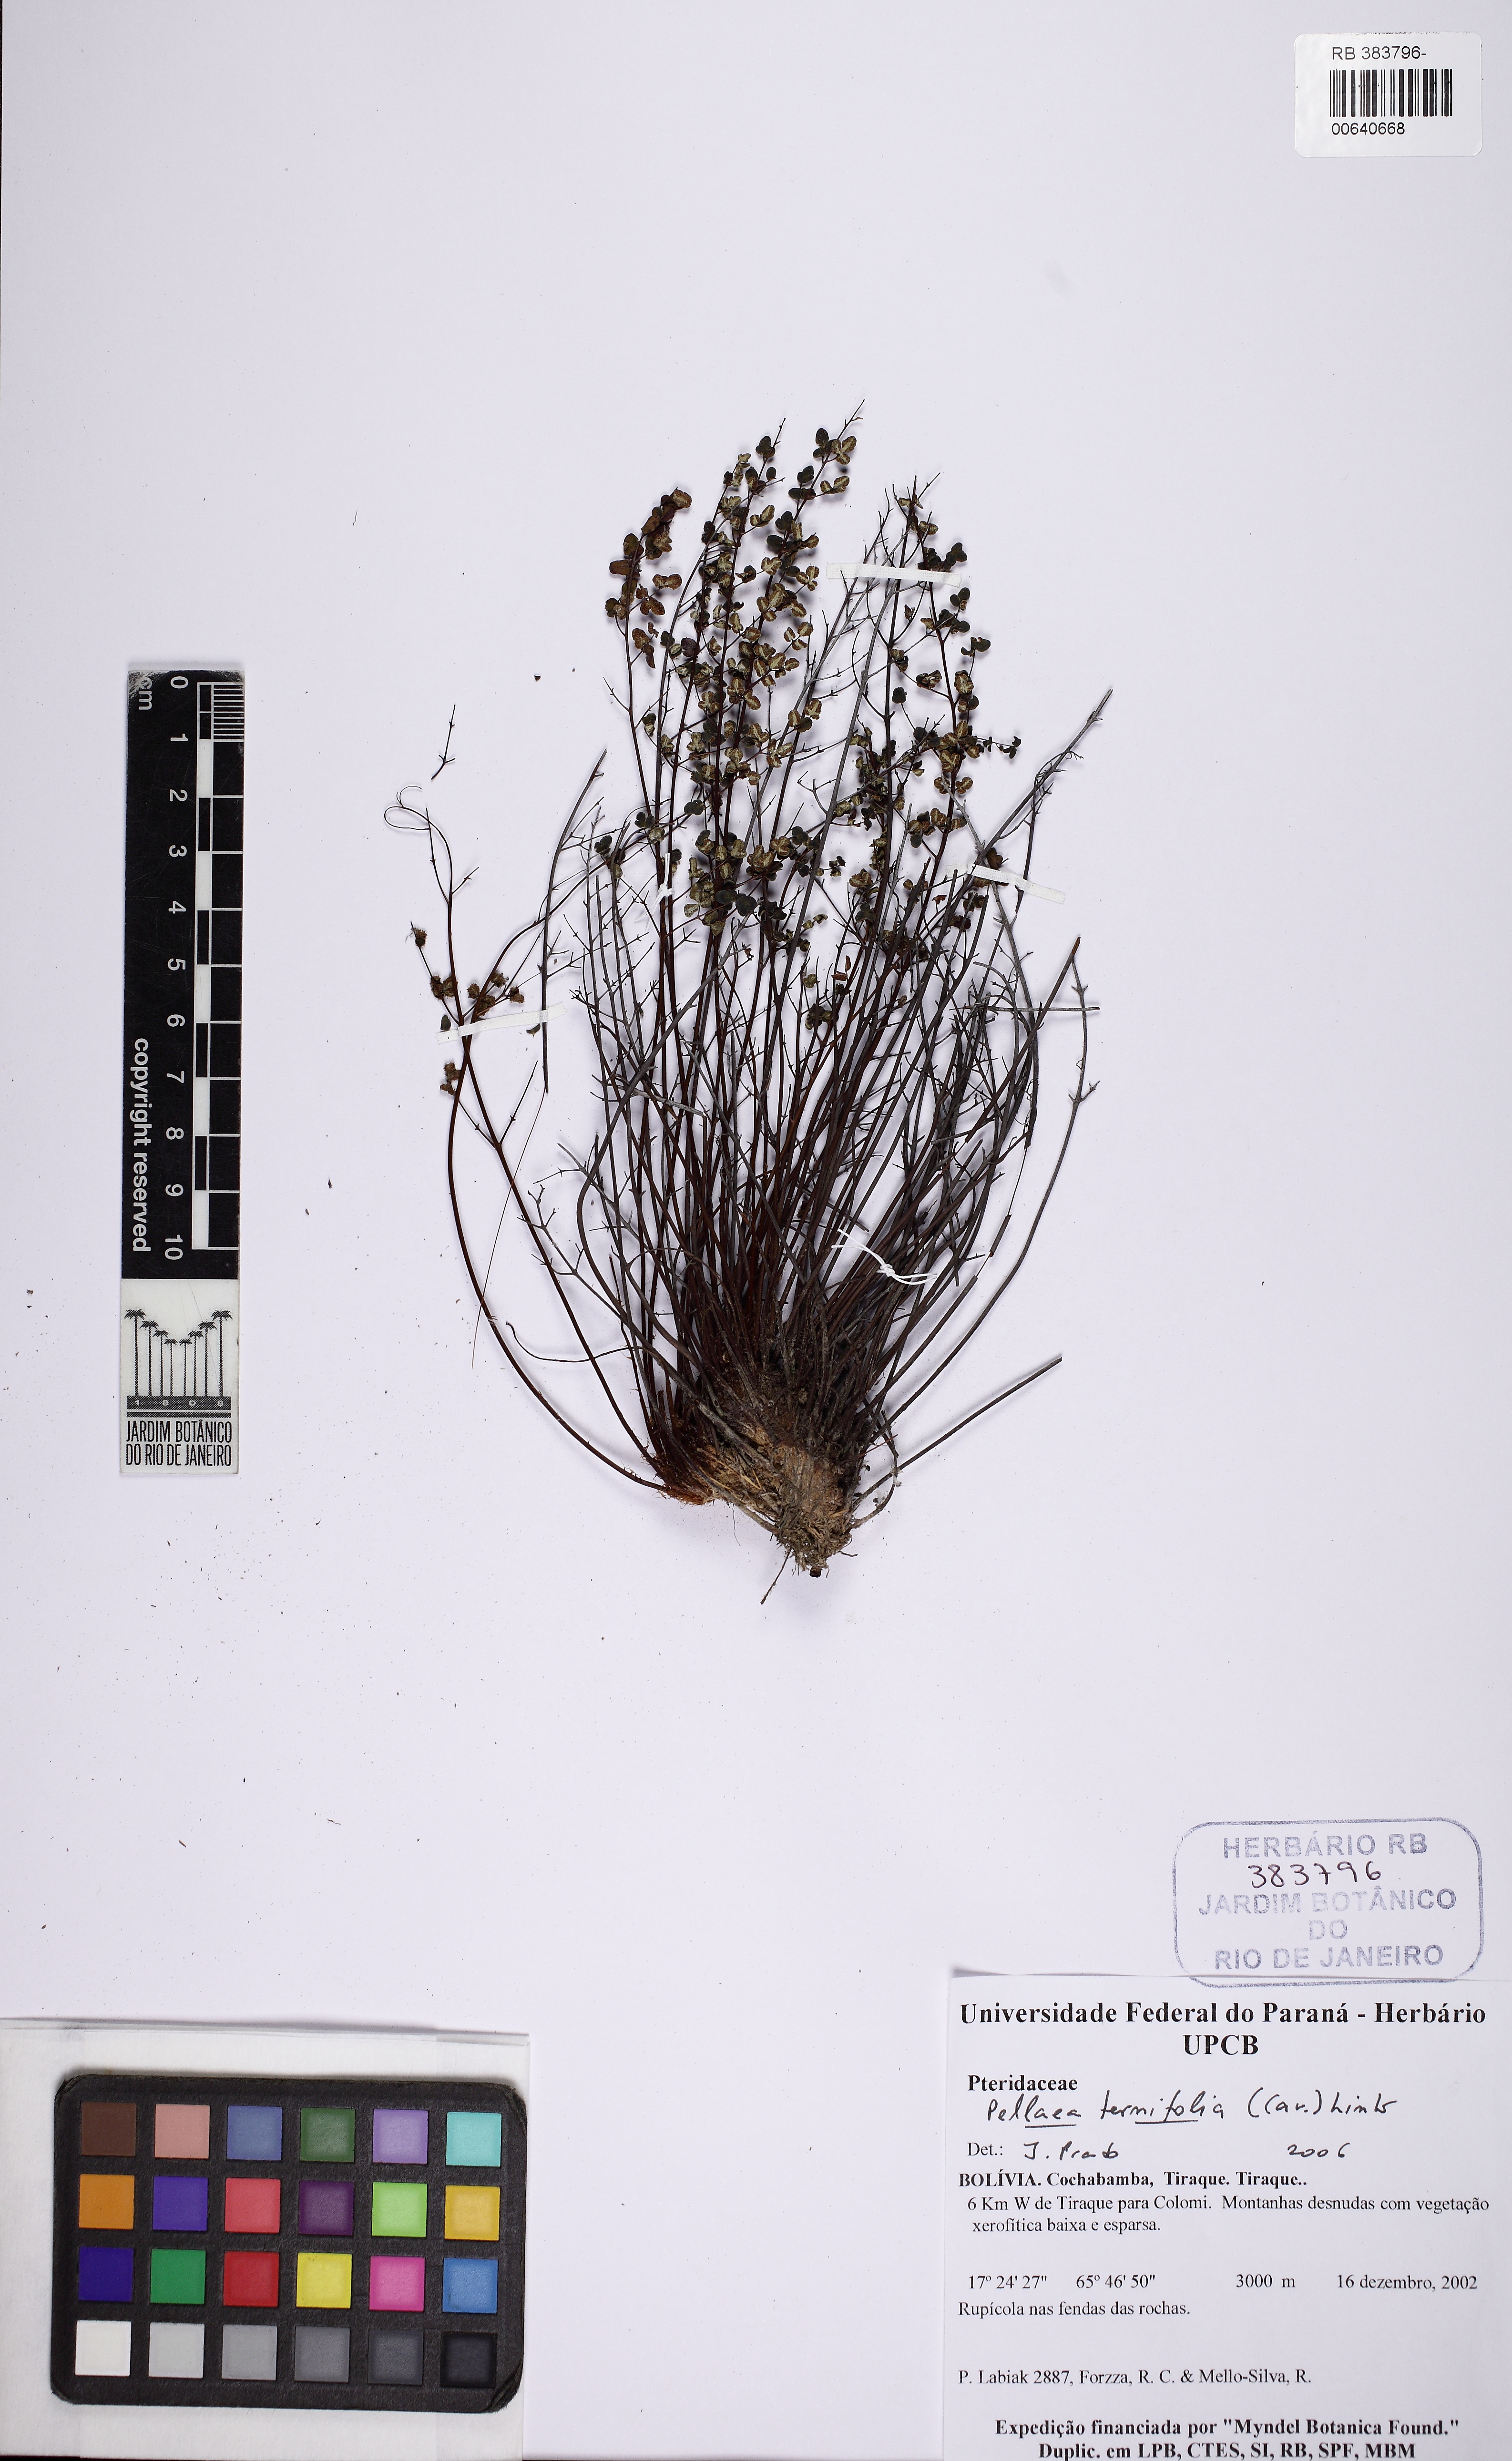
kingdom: Plantae
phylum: Tracheophyta
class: Polypodiopsida
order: Polypodiales
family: Pteridaceae
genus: Pellaea
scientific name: Pellaea ternifolia
